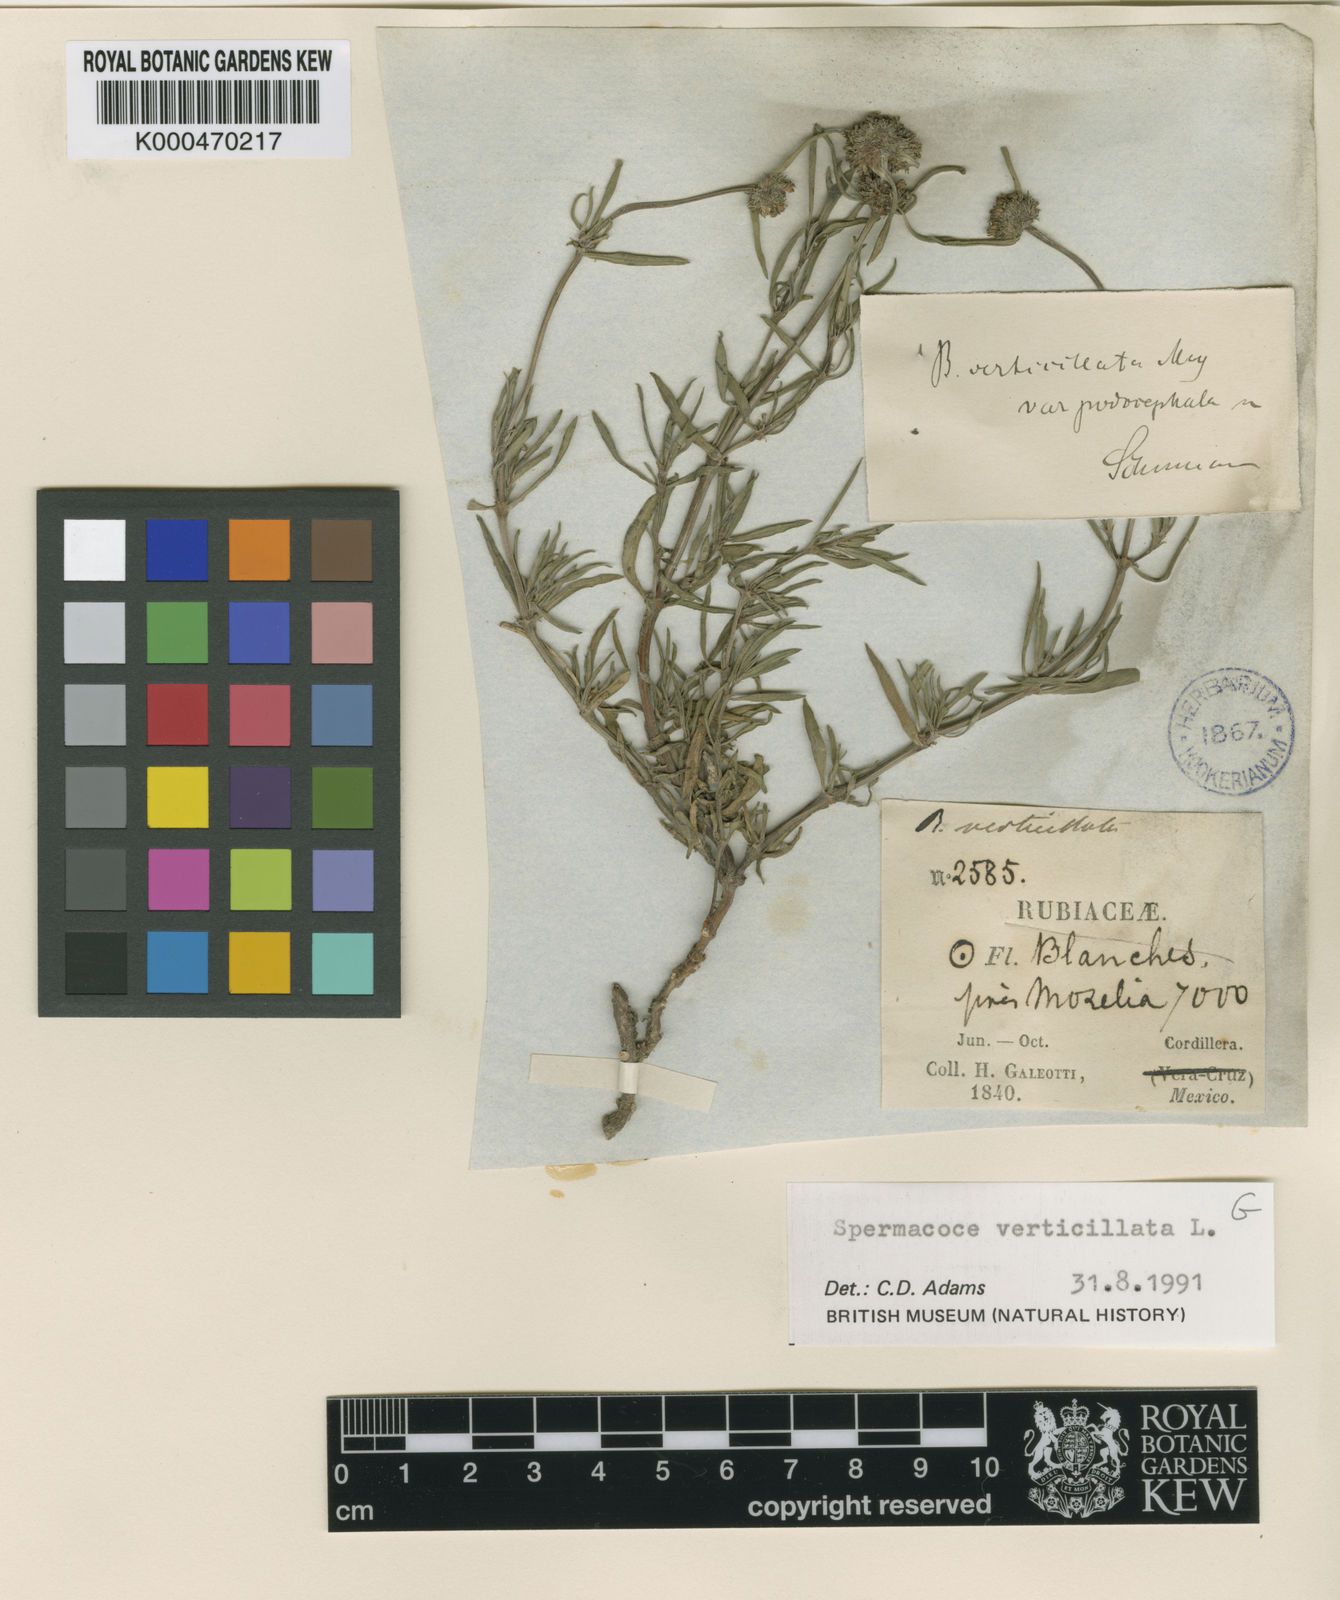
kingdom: Plantae
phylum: Tracheophyta
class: Magnoliopsida
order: Gentianales
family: Rubiaceae
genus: Spermacoce
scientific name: Spermacoce verticillata
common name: Shrubby false buttonweed
